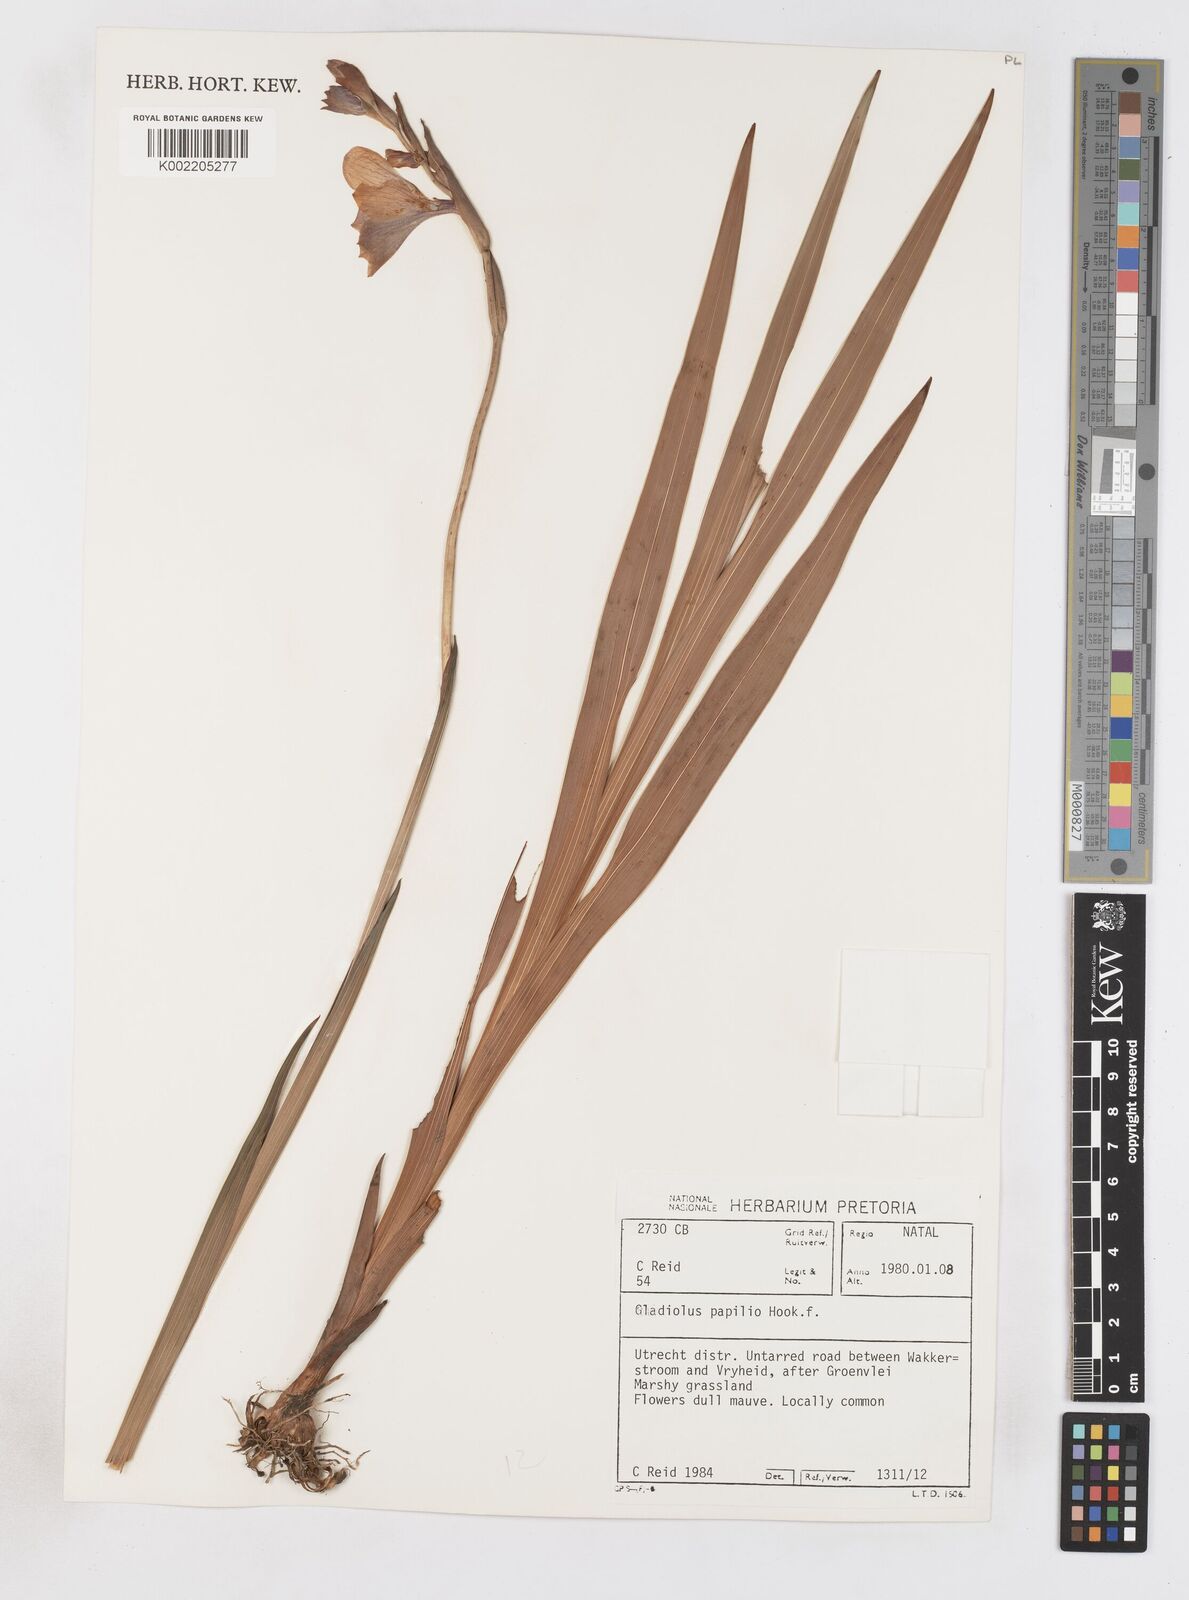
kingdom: Plantae
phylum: Tracheophyta
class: Liliopsida
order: Asparagales
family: Iridaceae
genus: Gladiolus
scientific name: Gladiolus papilio
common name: Goldblotch gladiolus
